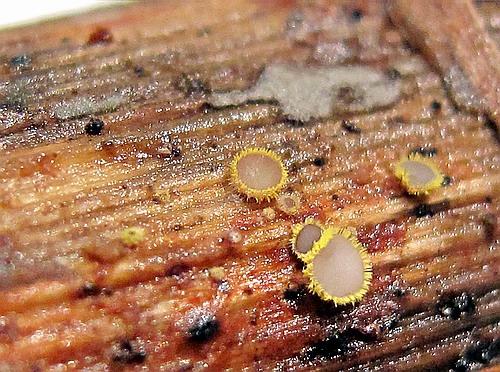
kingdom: Fungi
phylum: Ascomycota
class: Leotiomycetes
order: Helotiales
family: Lachnaceae
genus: Lachnum
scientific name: Lachnum sulphureum
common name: svovlhåret frynseskive
